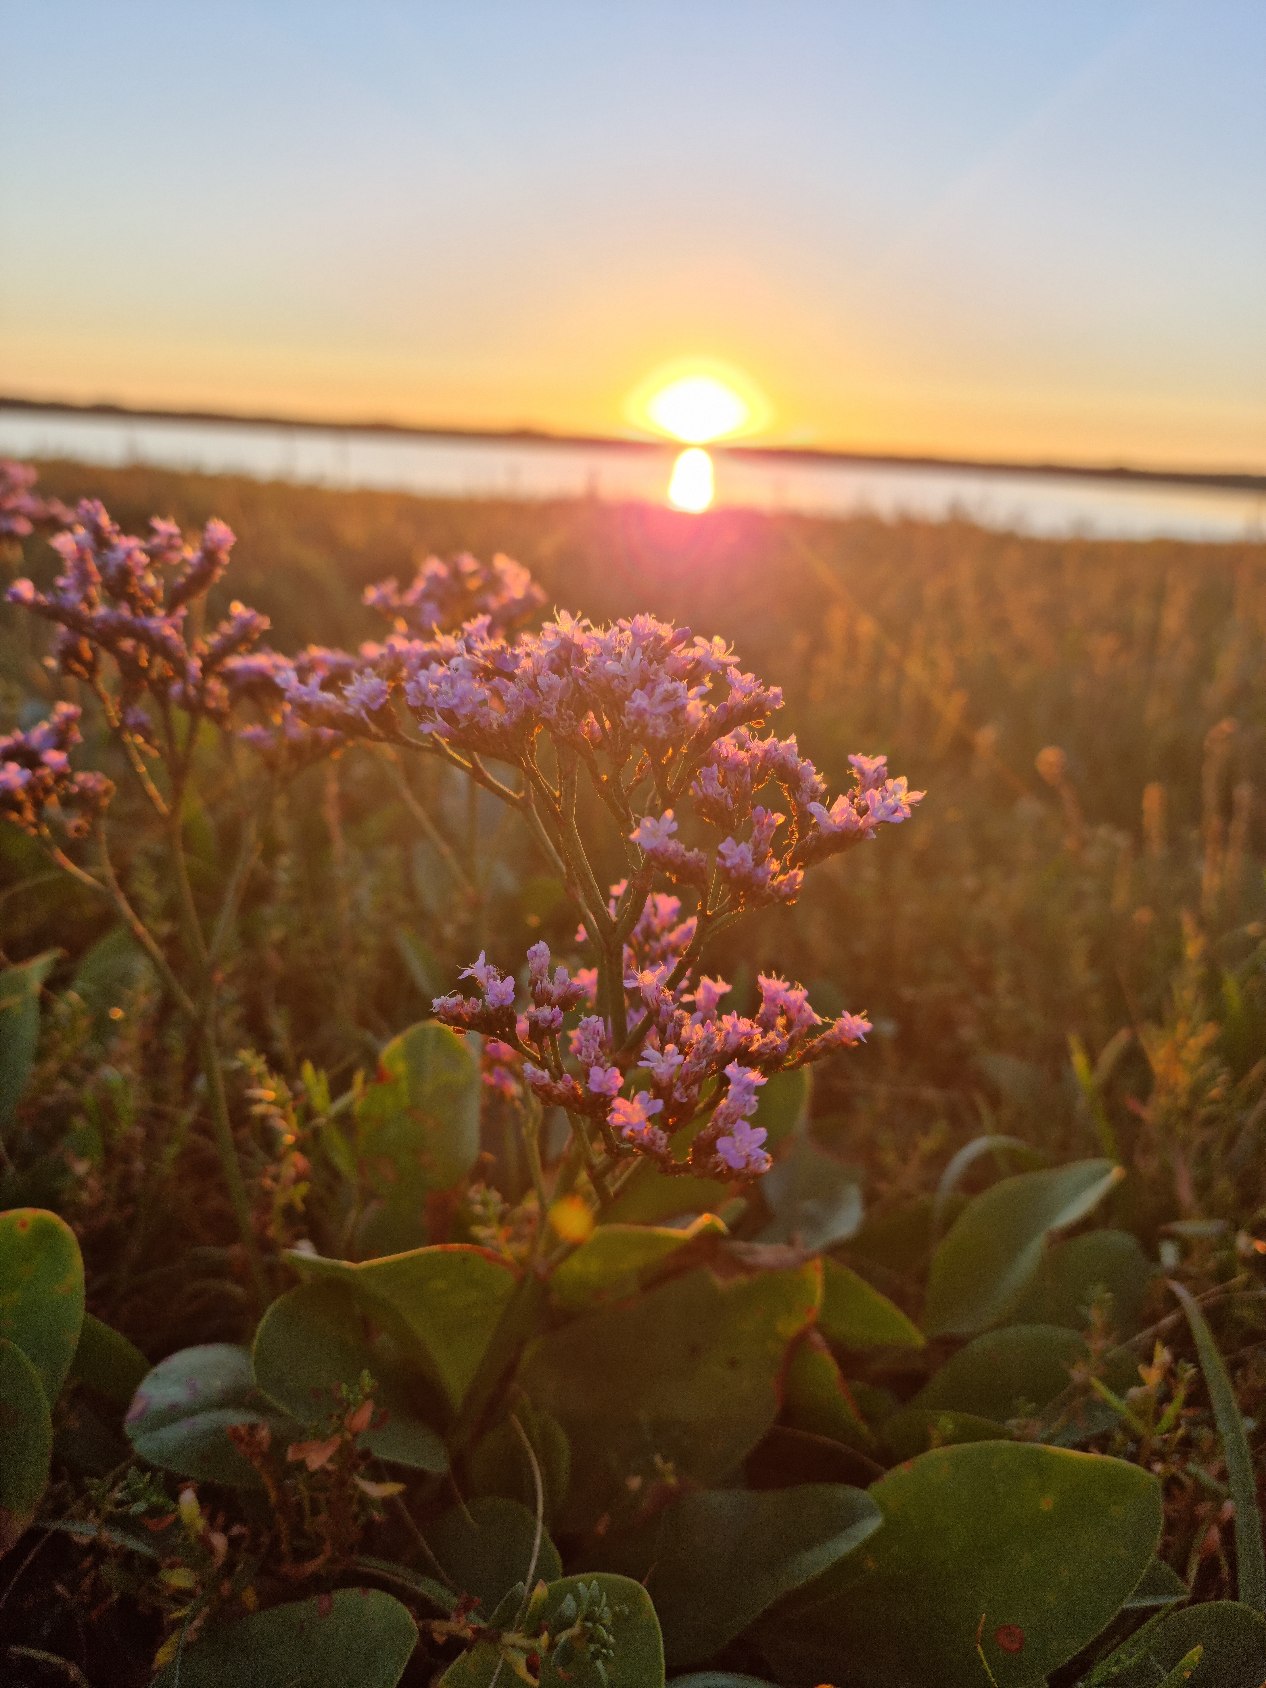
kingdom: Plantae
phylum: Tracheophyta
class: Magnoliopsida
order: Caryophyllales
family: Plumbaginaceae
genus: Limonium
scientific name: Limonium vulgare
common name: Tætblomstret hindebæger
